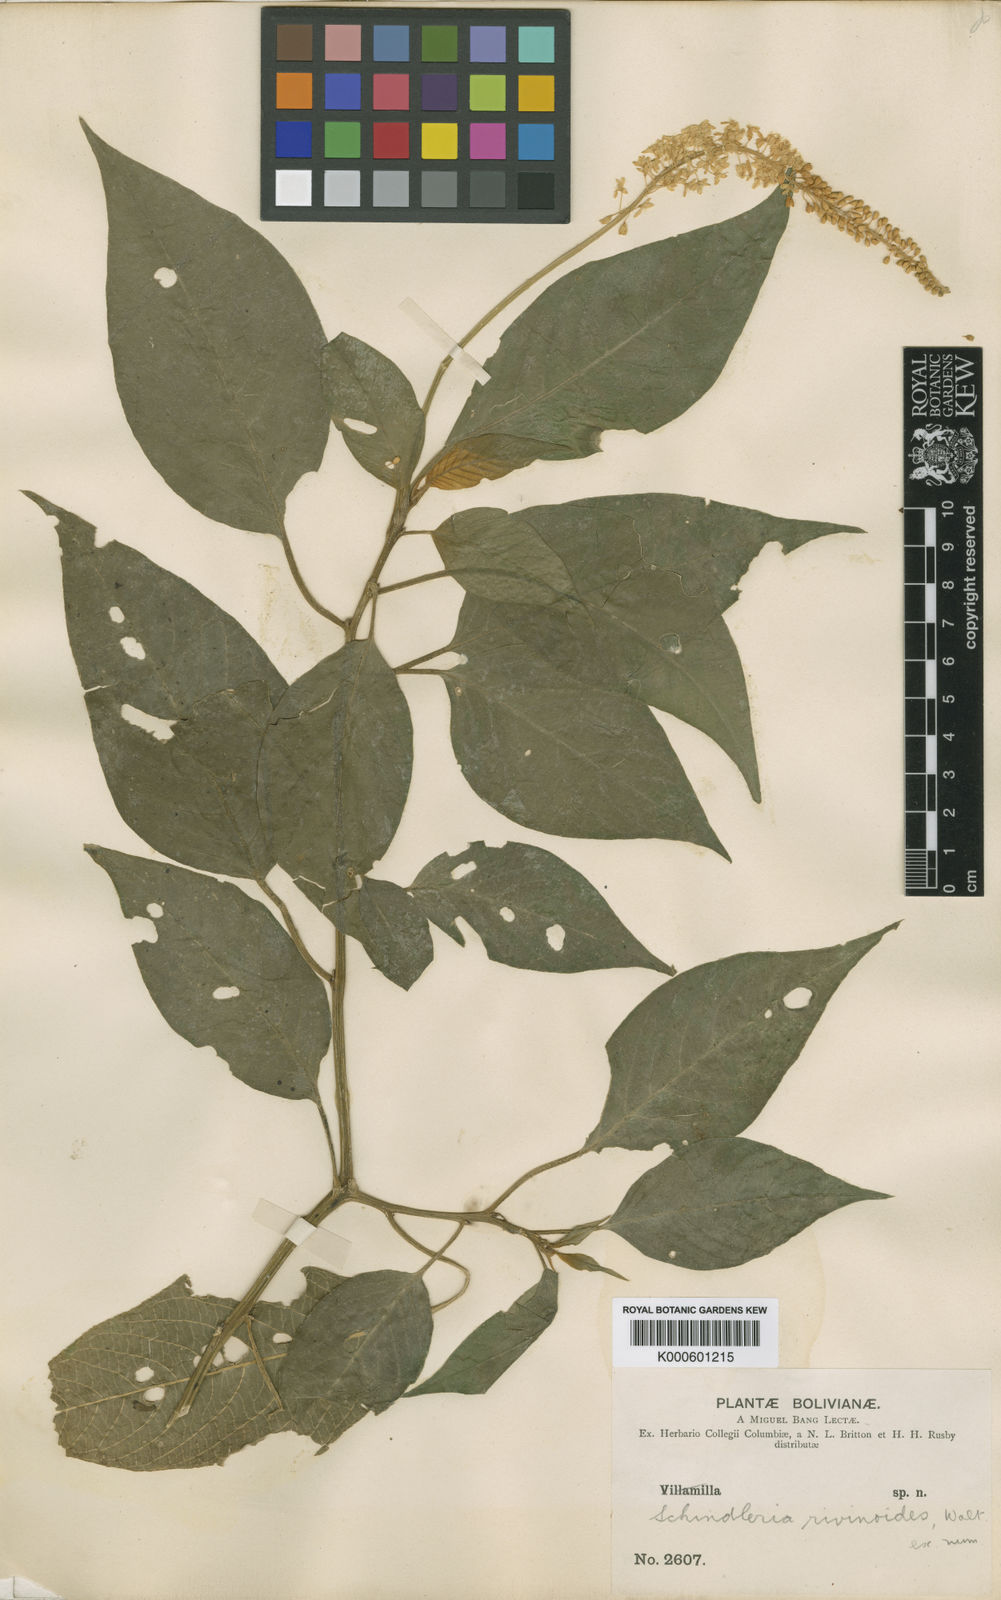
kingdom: Plantae
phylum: Tracheophyta
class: Magnoliopsida
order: Caryophyllales
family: Phytolaccaceae
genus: Schindleria
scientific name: Schindleria densiflora
